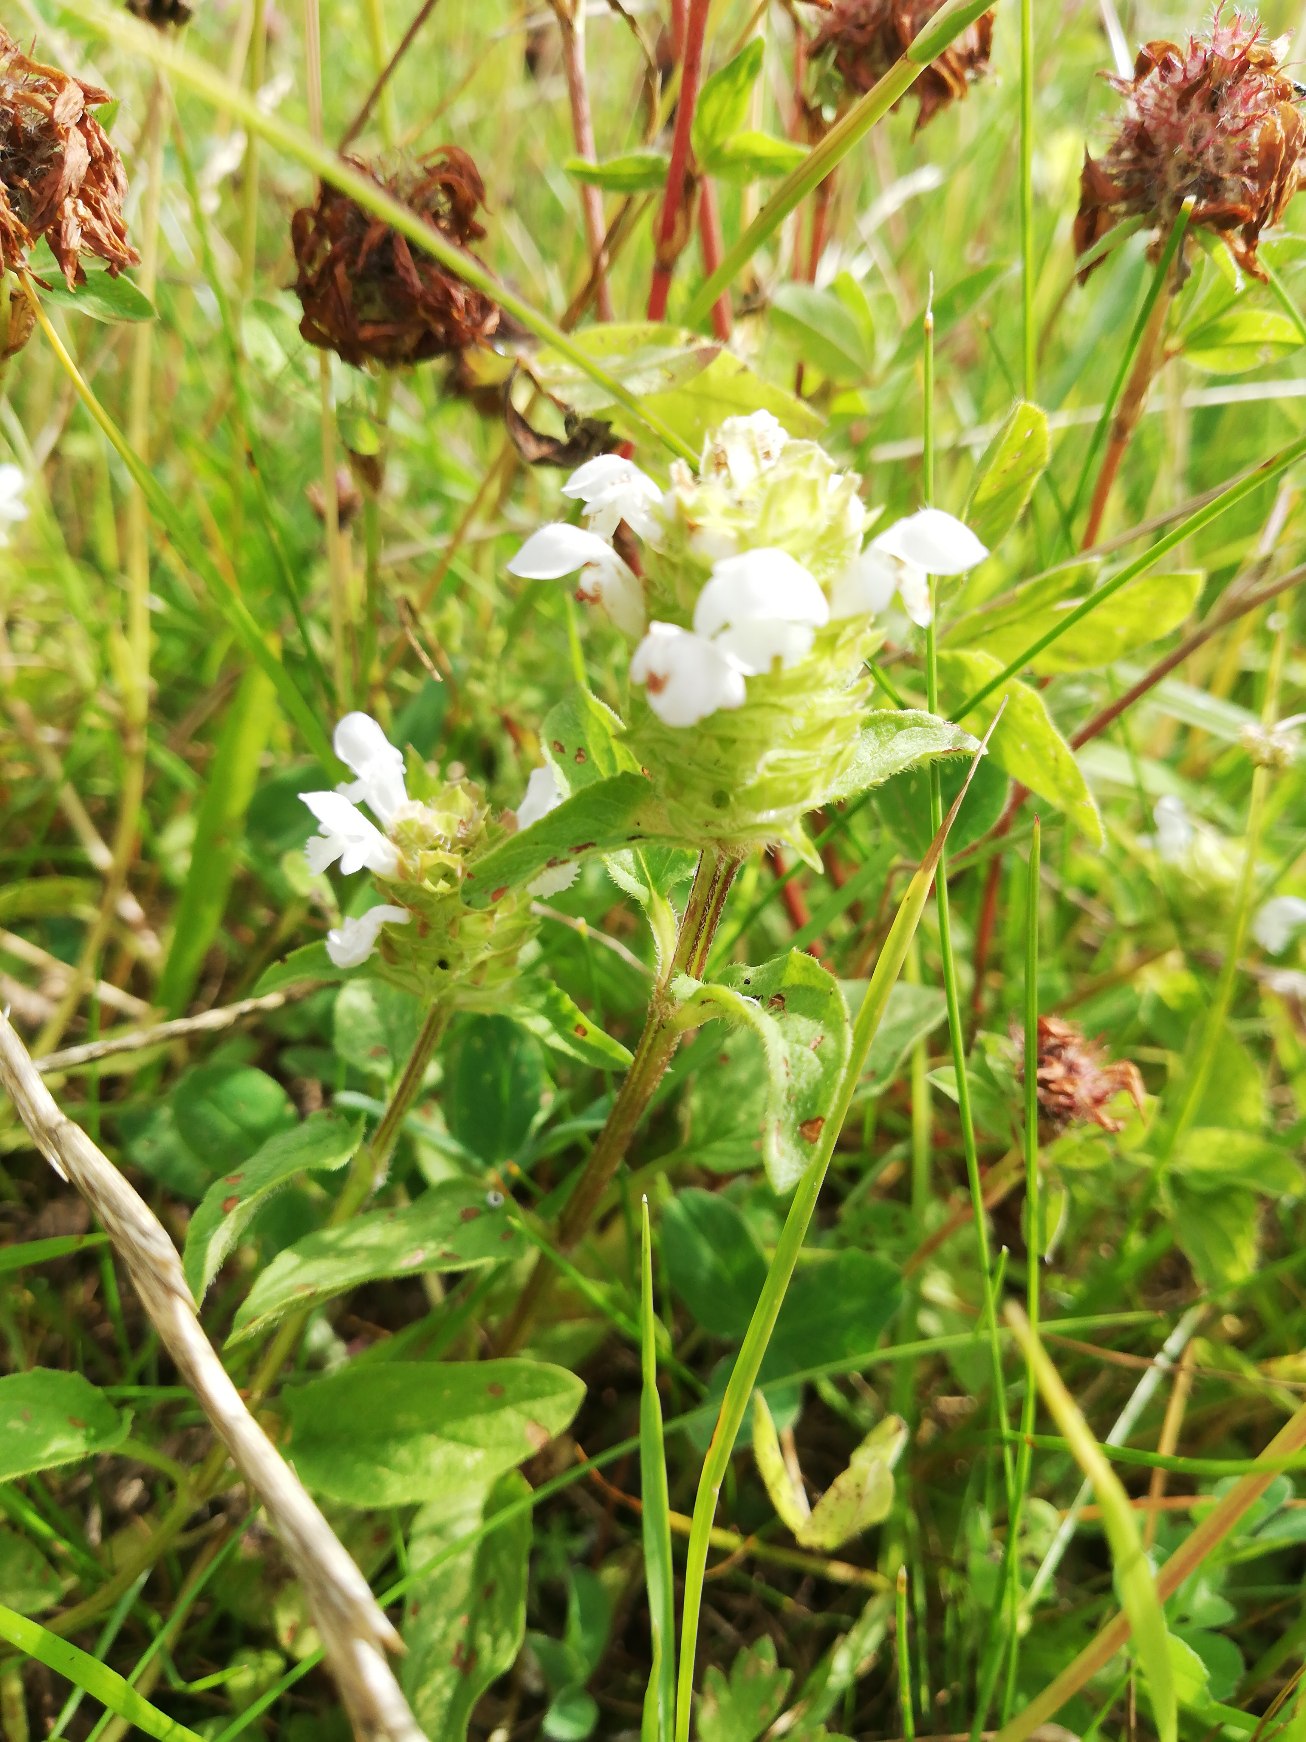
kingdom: Plantae
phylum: Tracheophyta
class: Magnoliopsida
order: Lamiales
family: Lamiaceae
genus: Prunella
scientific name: Prunella vulgaris
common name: Almindelig brunelle
